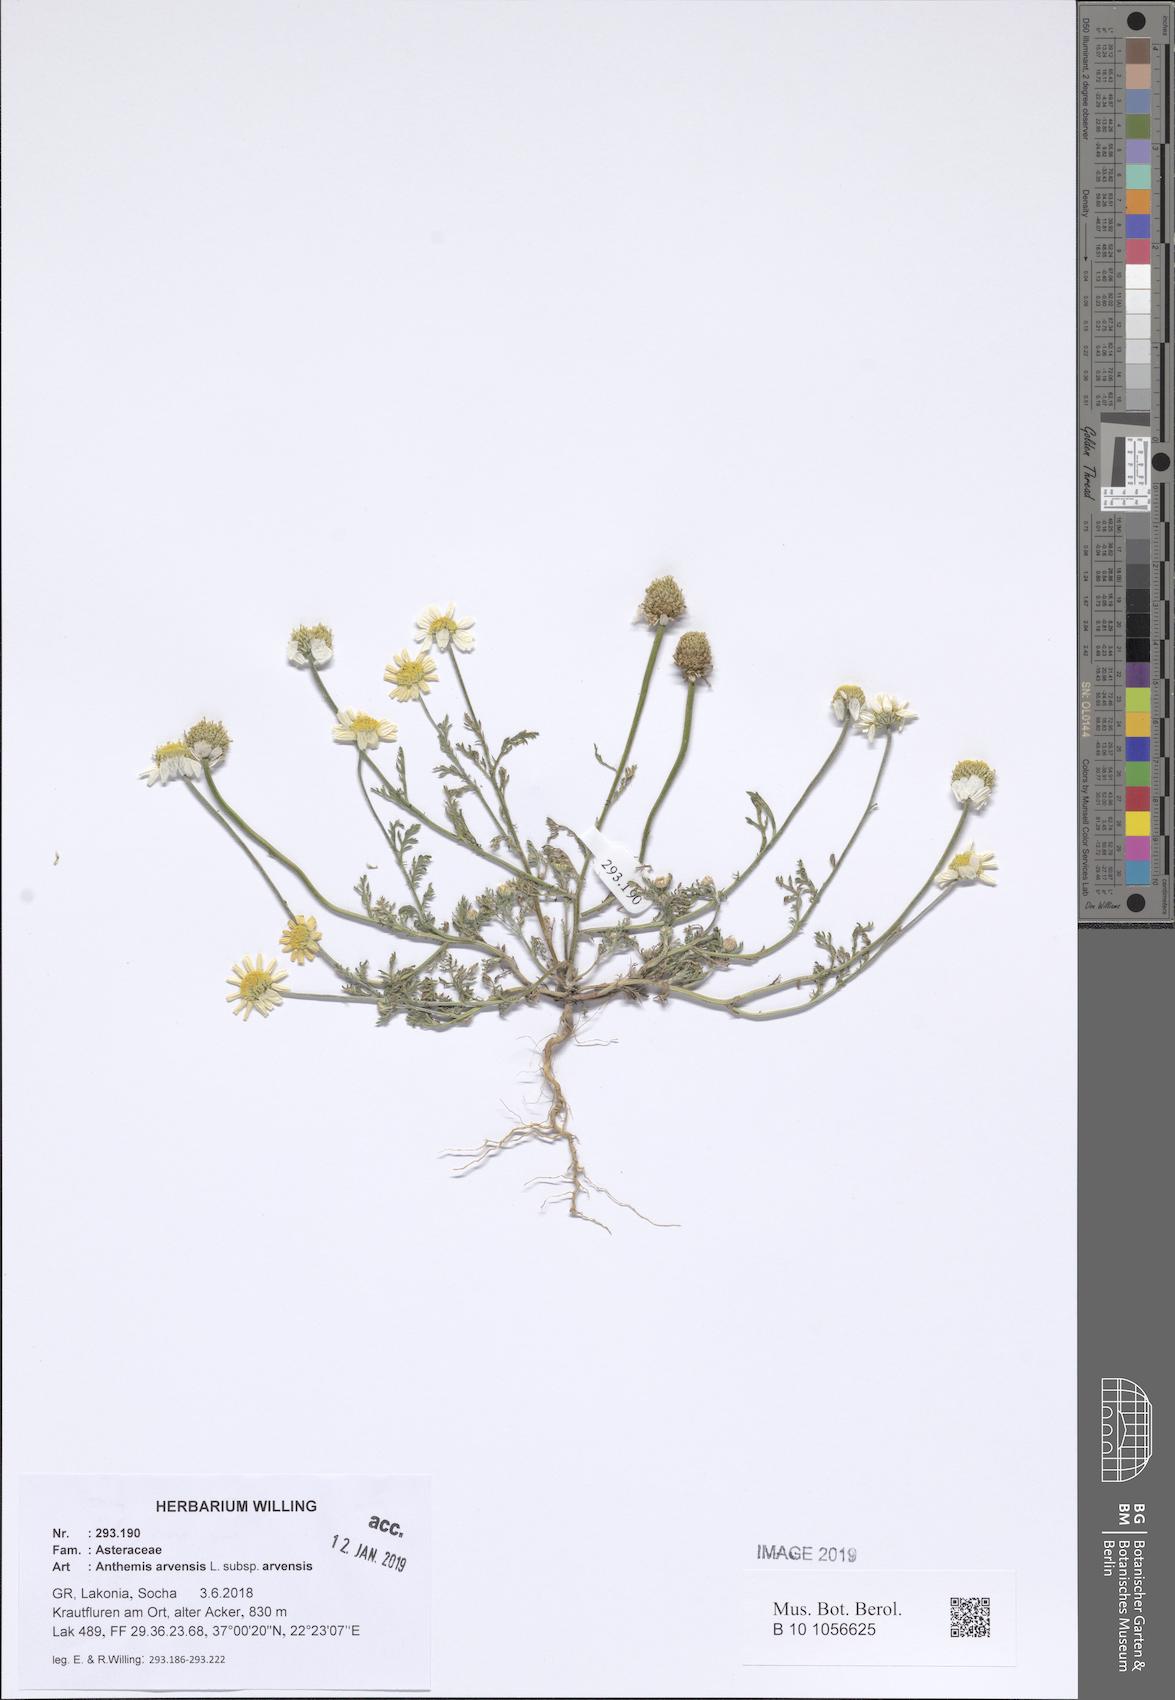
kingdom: Plantae
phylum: Tracheophyta
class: Magnoliopsida
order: Asterales
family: Asteraceae
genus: Anthemis
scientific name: Anthemis arvensis
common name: Corn chamomile
